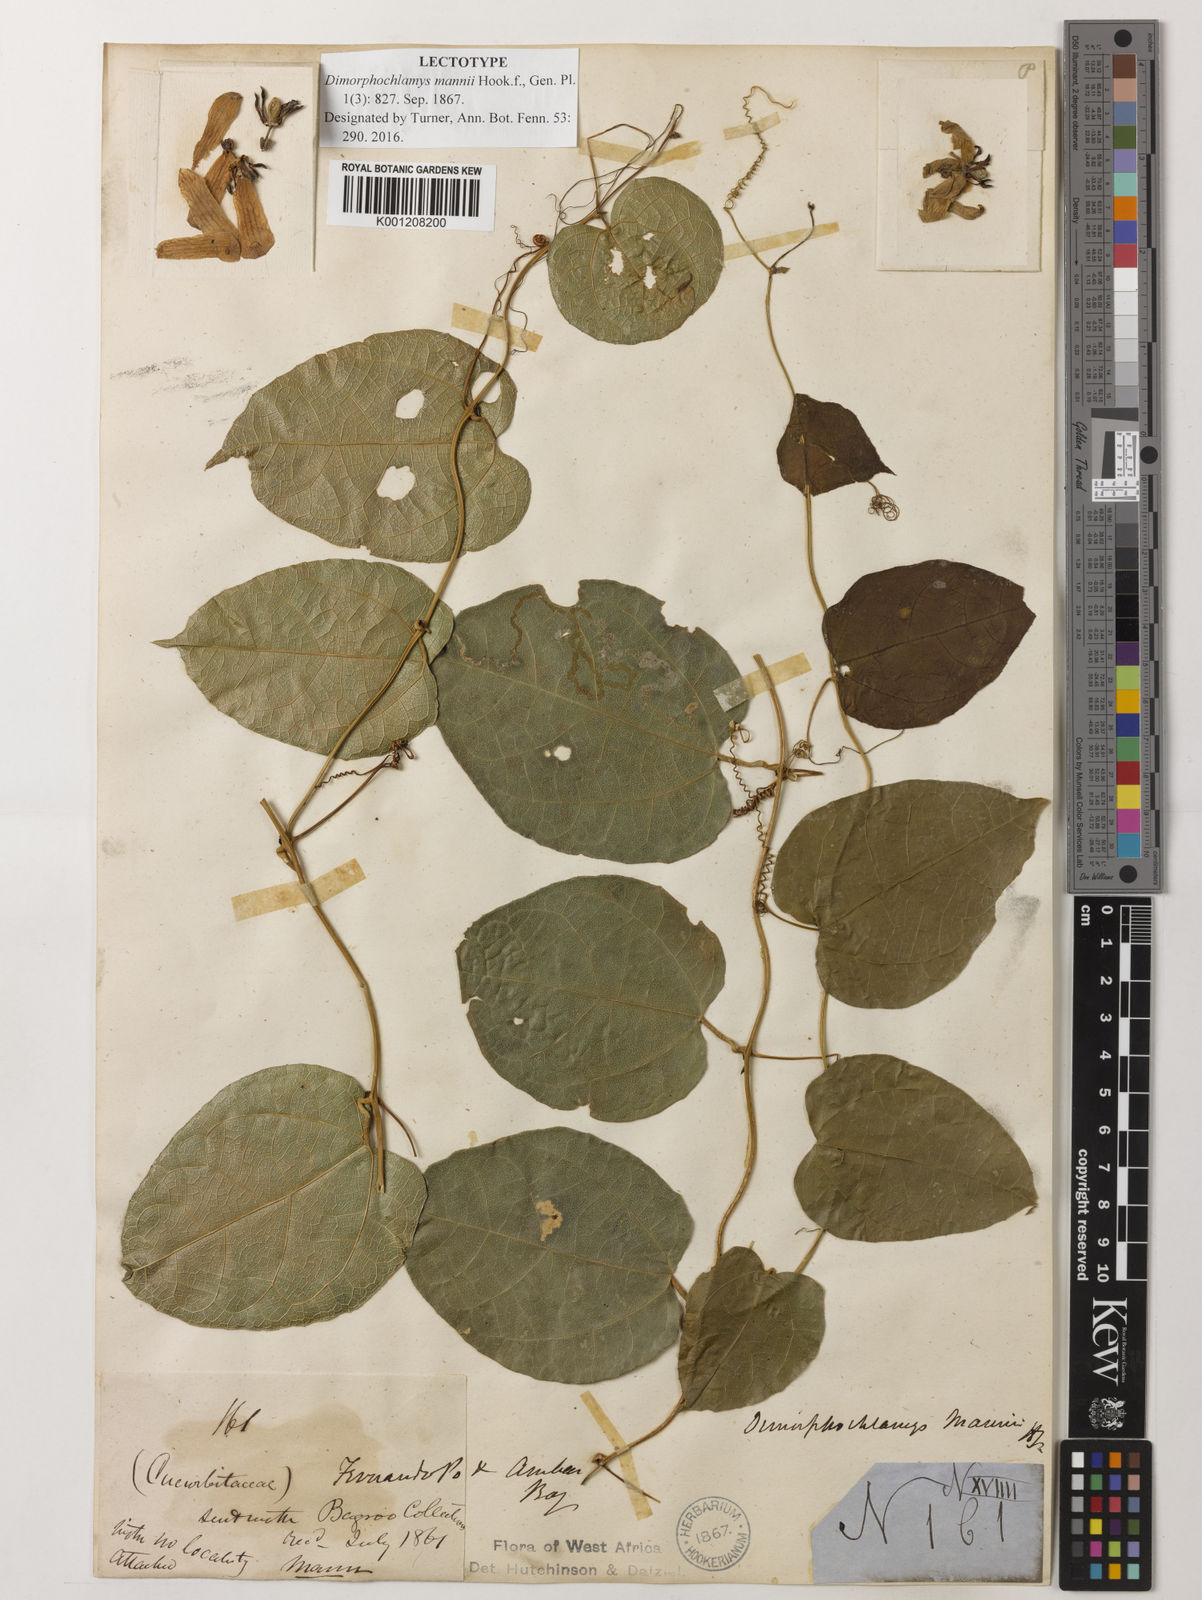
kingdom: Plantae
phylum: Tracheophyta
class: Magnoliopsida
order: Cucurbitales
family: Cucurbitaceae
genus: Momordica
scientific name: Momordica
